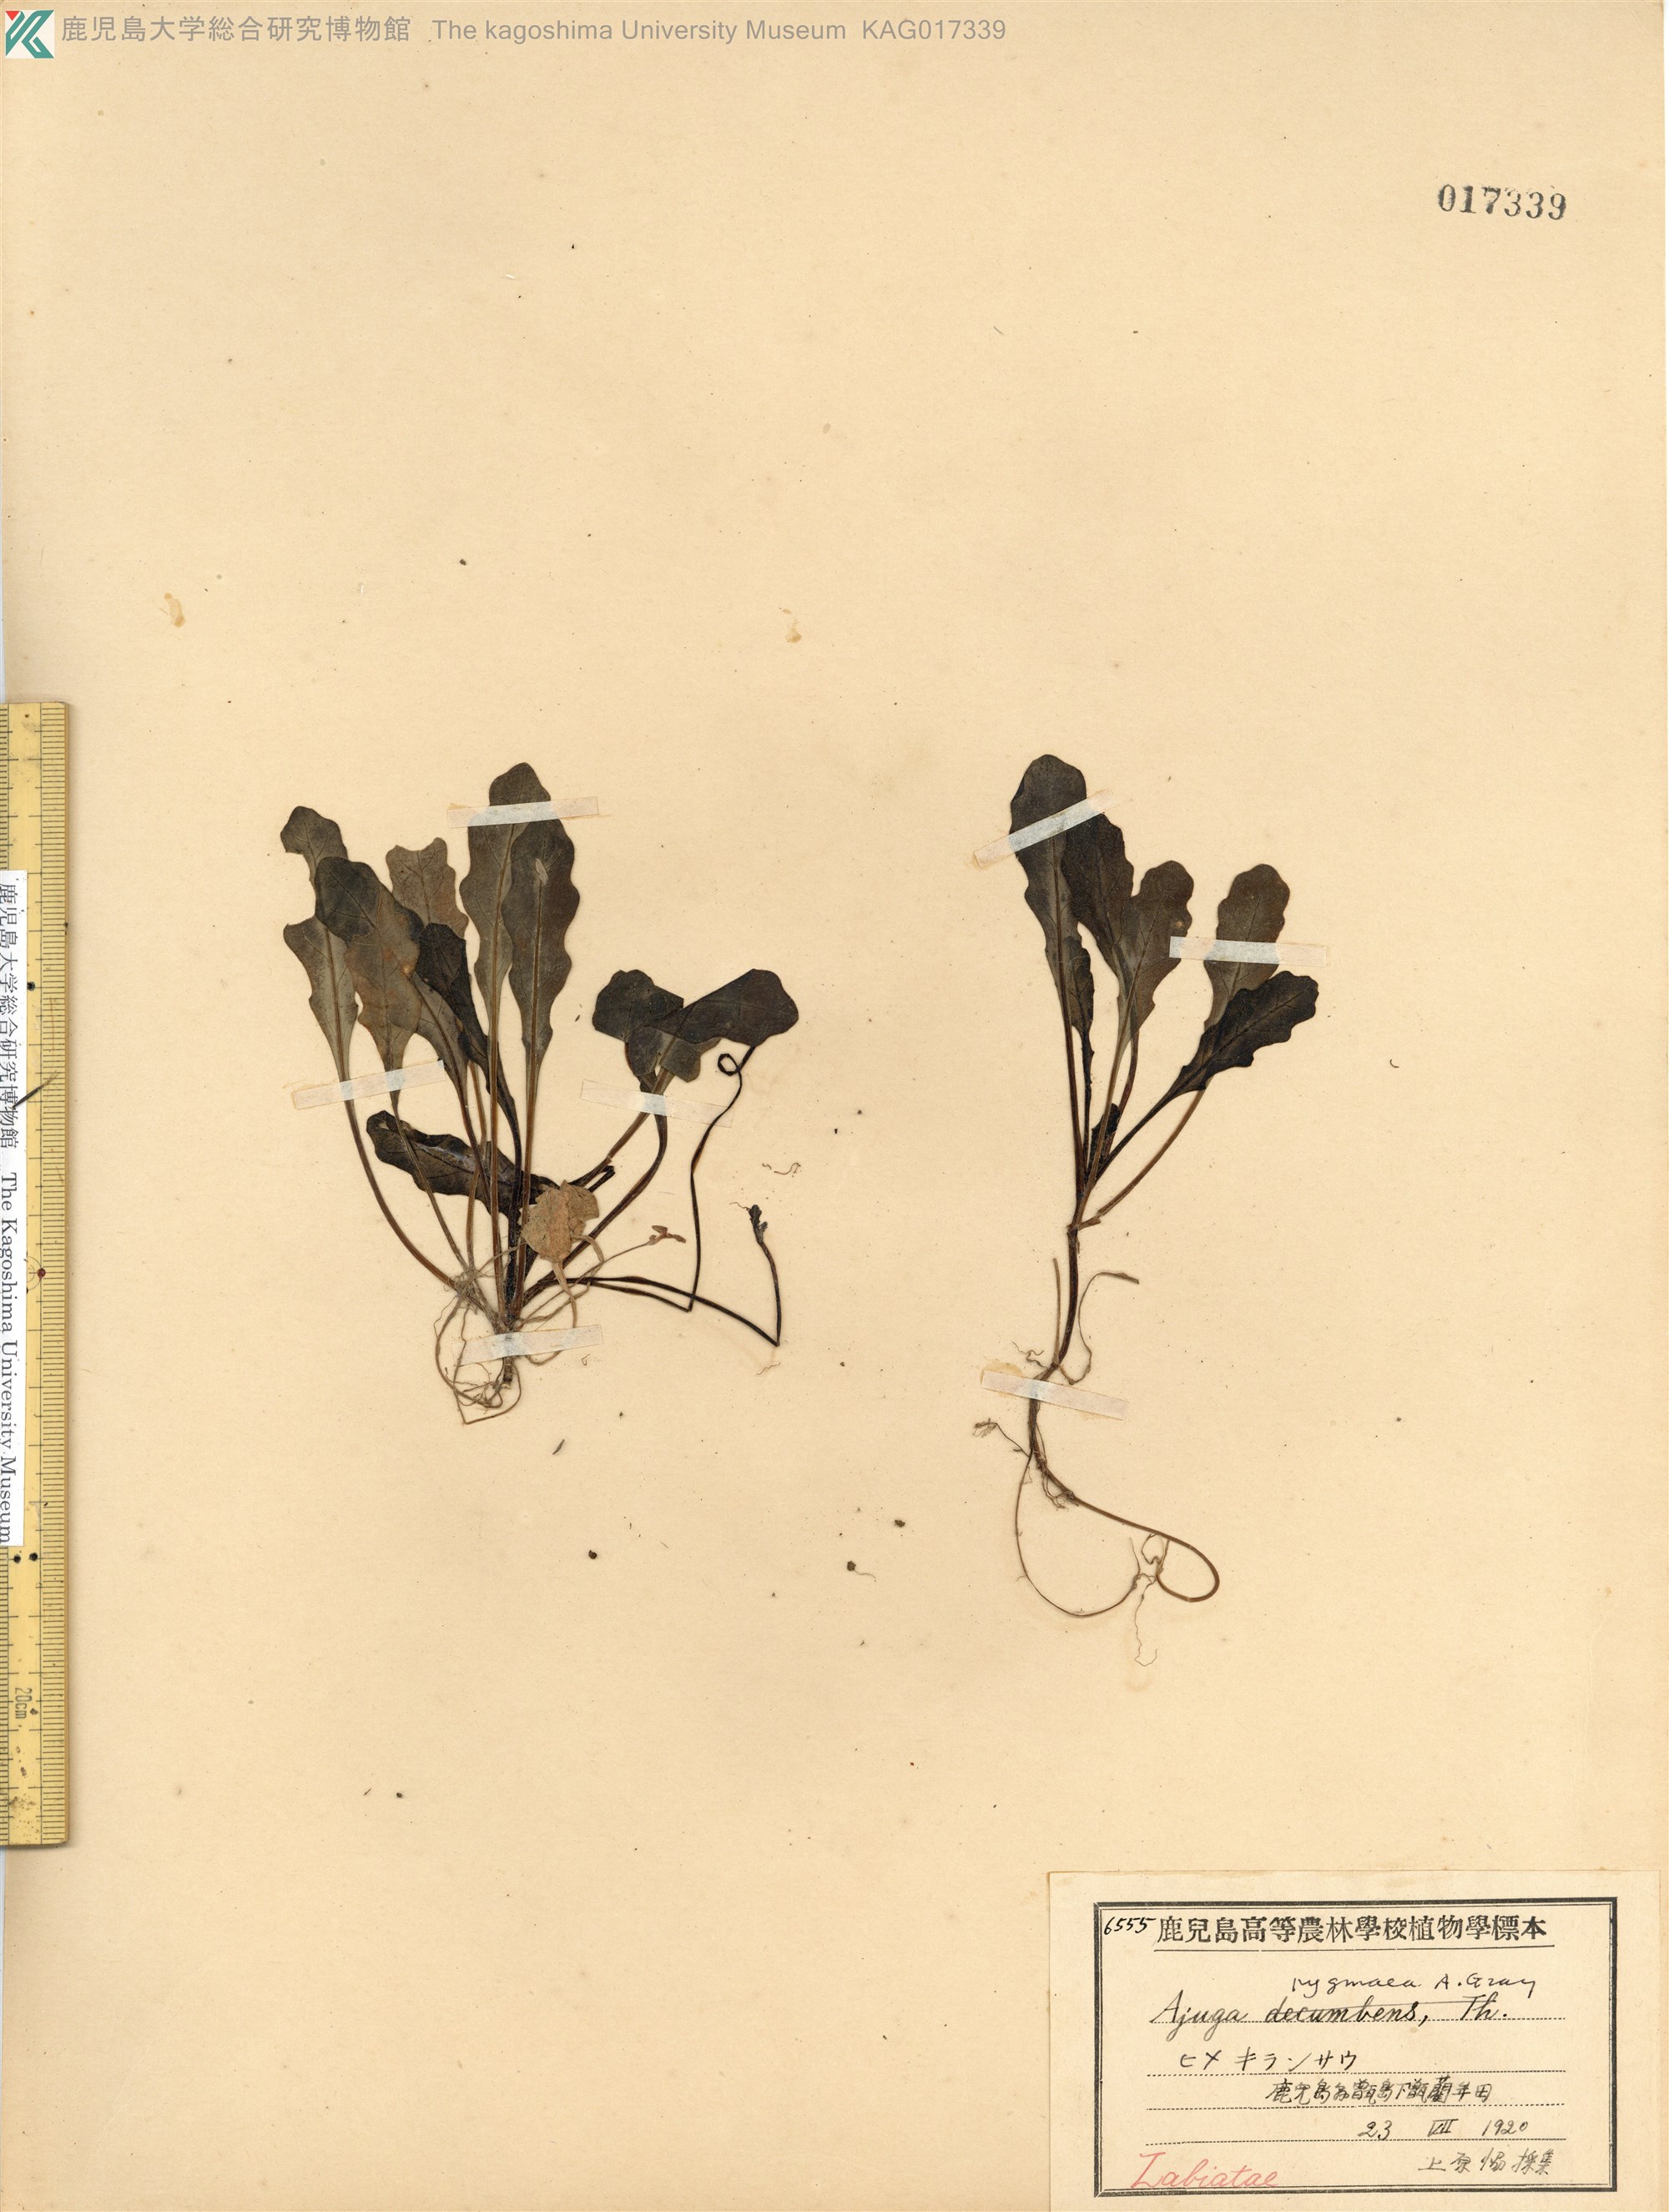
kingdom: Plantae
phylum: Tracheophyta
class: Magnoliopsida
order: Lamiales
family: Lamiaceae
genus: Ajuga
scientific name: Ajuga pygmaea
